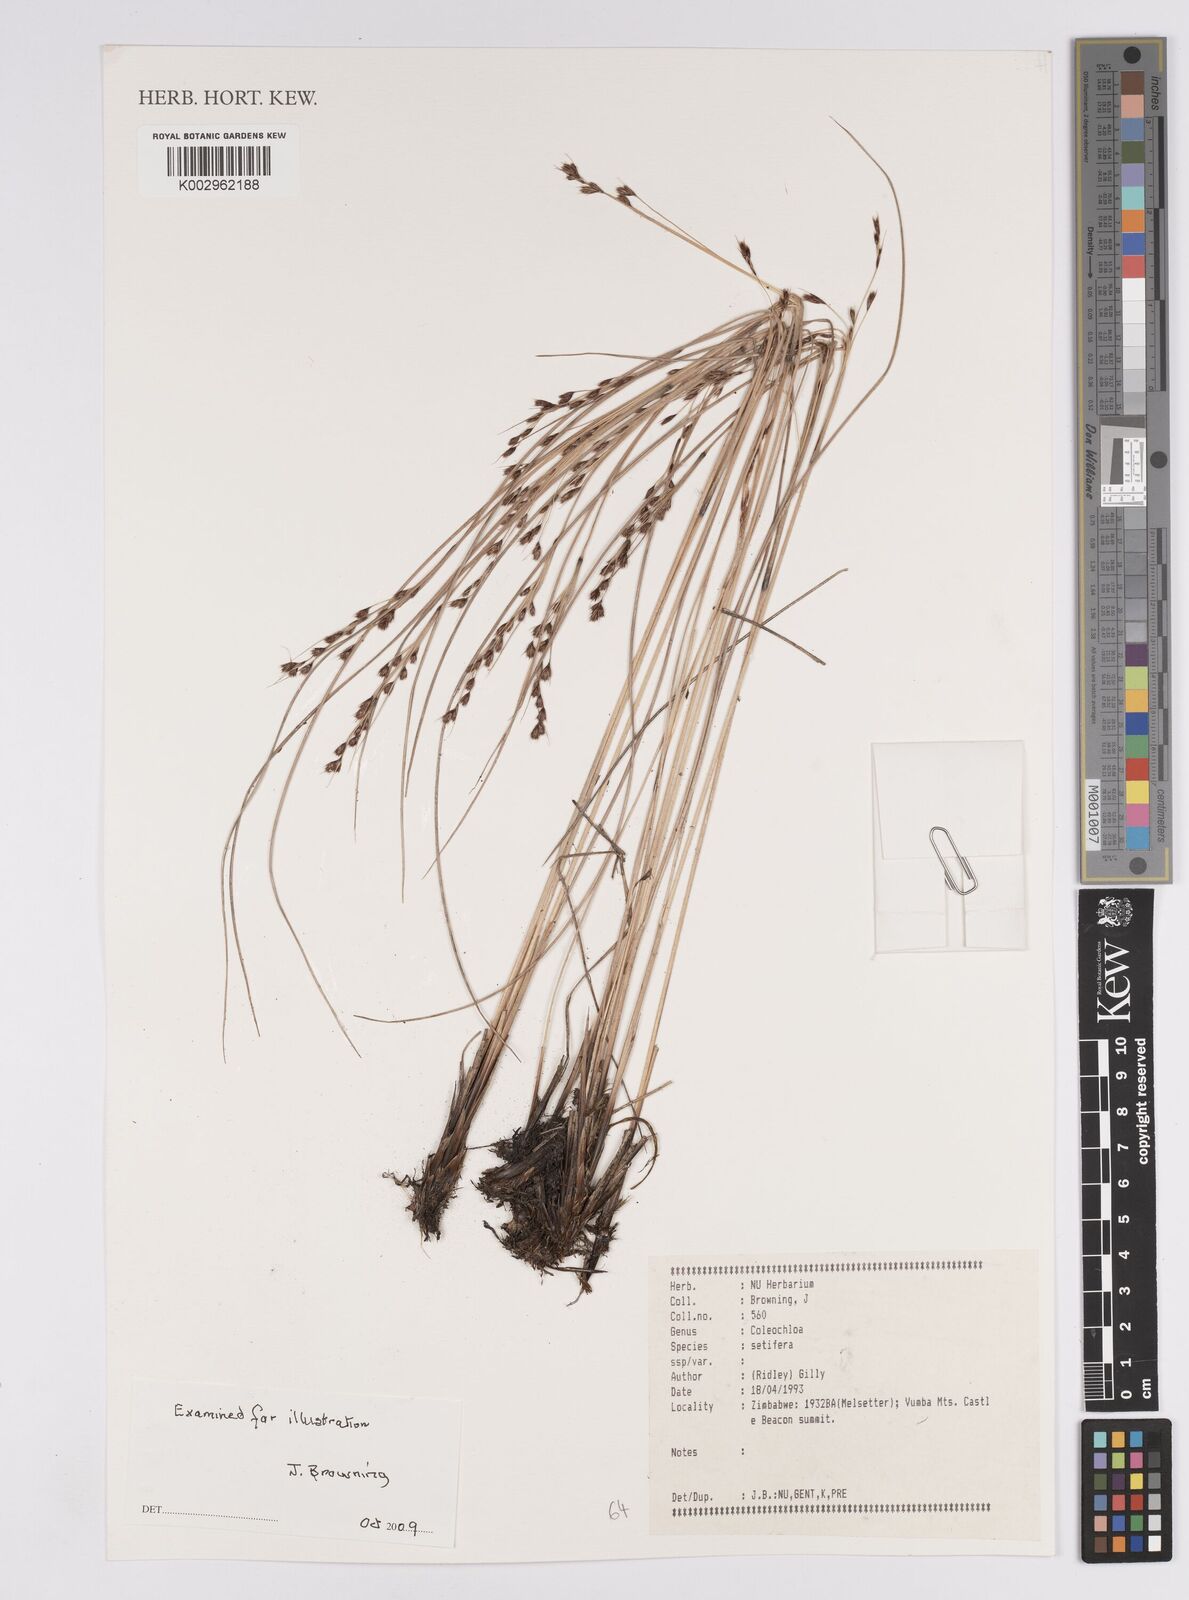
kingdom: Plantae
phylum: Tracheophyta
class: Liliopsida
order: Poales
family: Cyperaceae
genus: Coleochloa
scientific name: Coleochloa setifera
